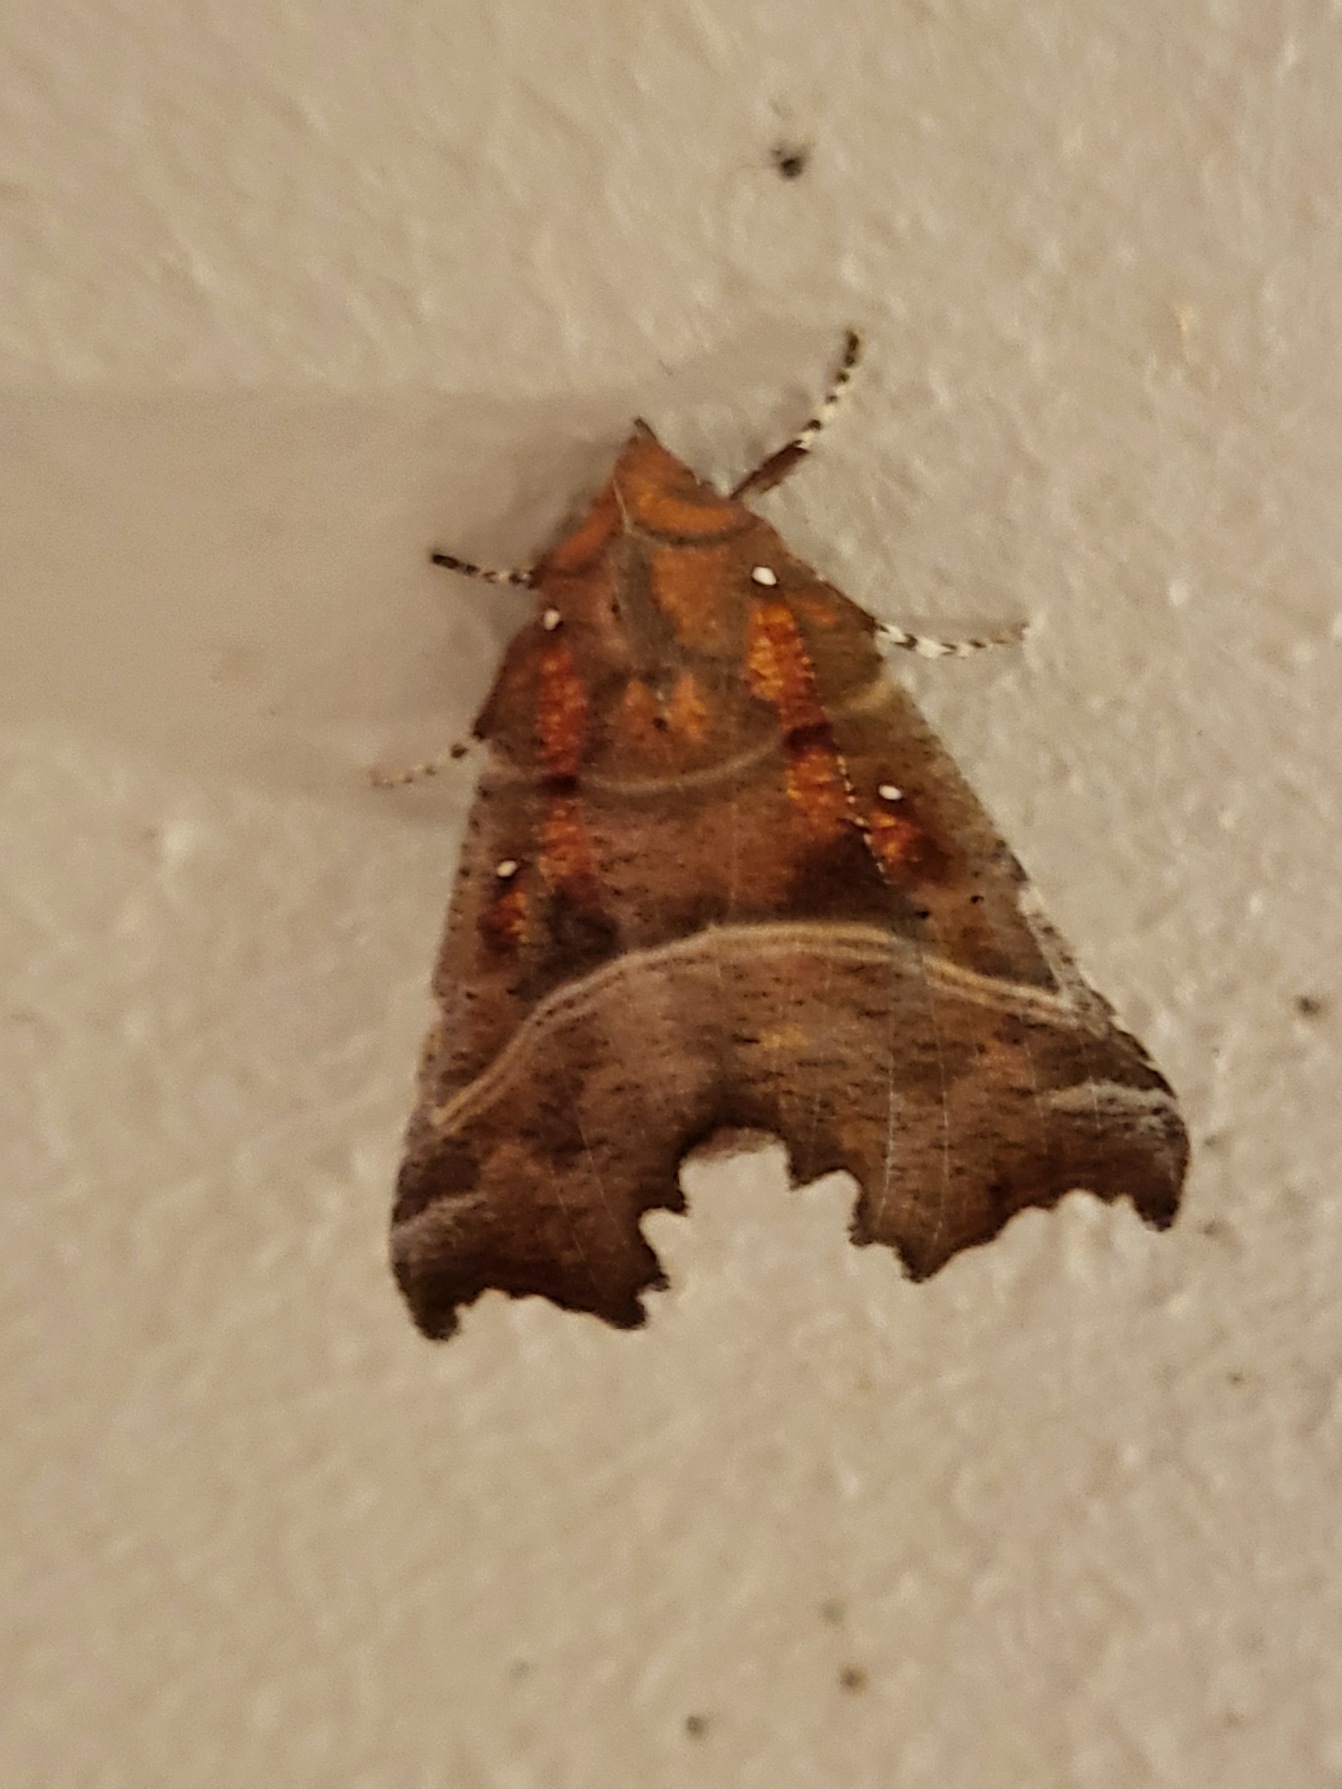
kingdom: Animalia
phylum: Arthropoda
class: Insecta
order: Lepidoptera
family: Erebidae
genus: Scoliopteryx
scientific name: Scoliopteryx libatrix
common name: Husmoderugle
